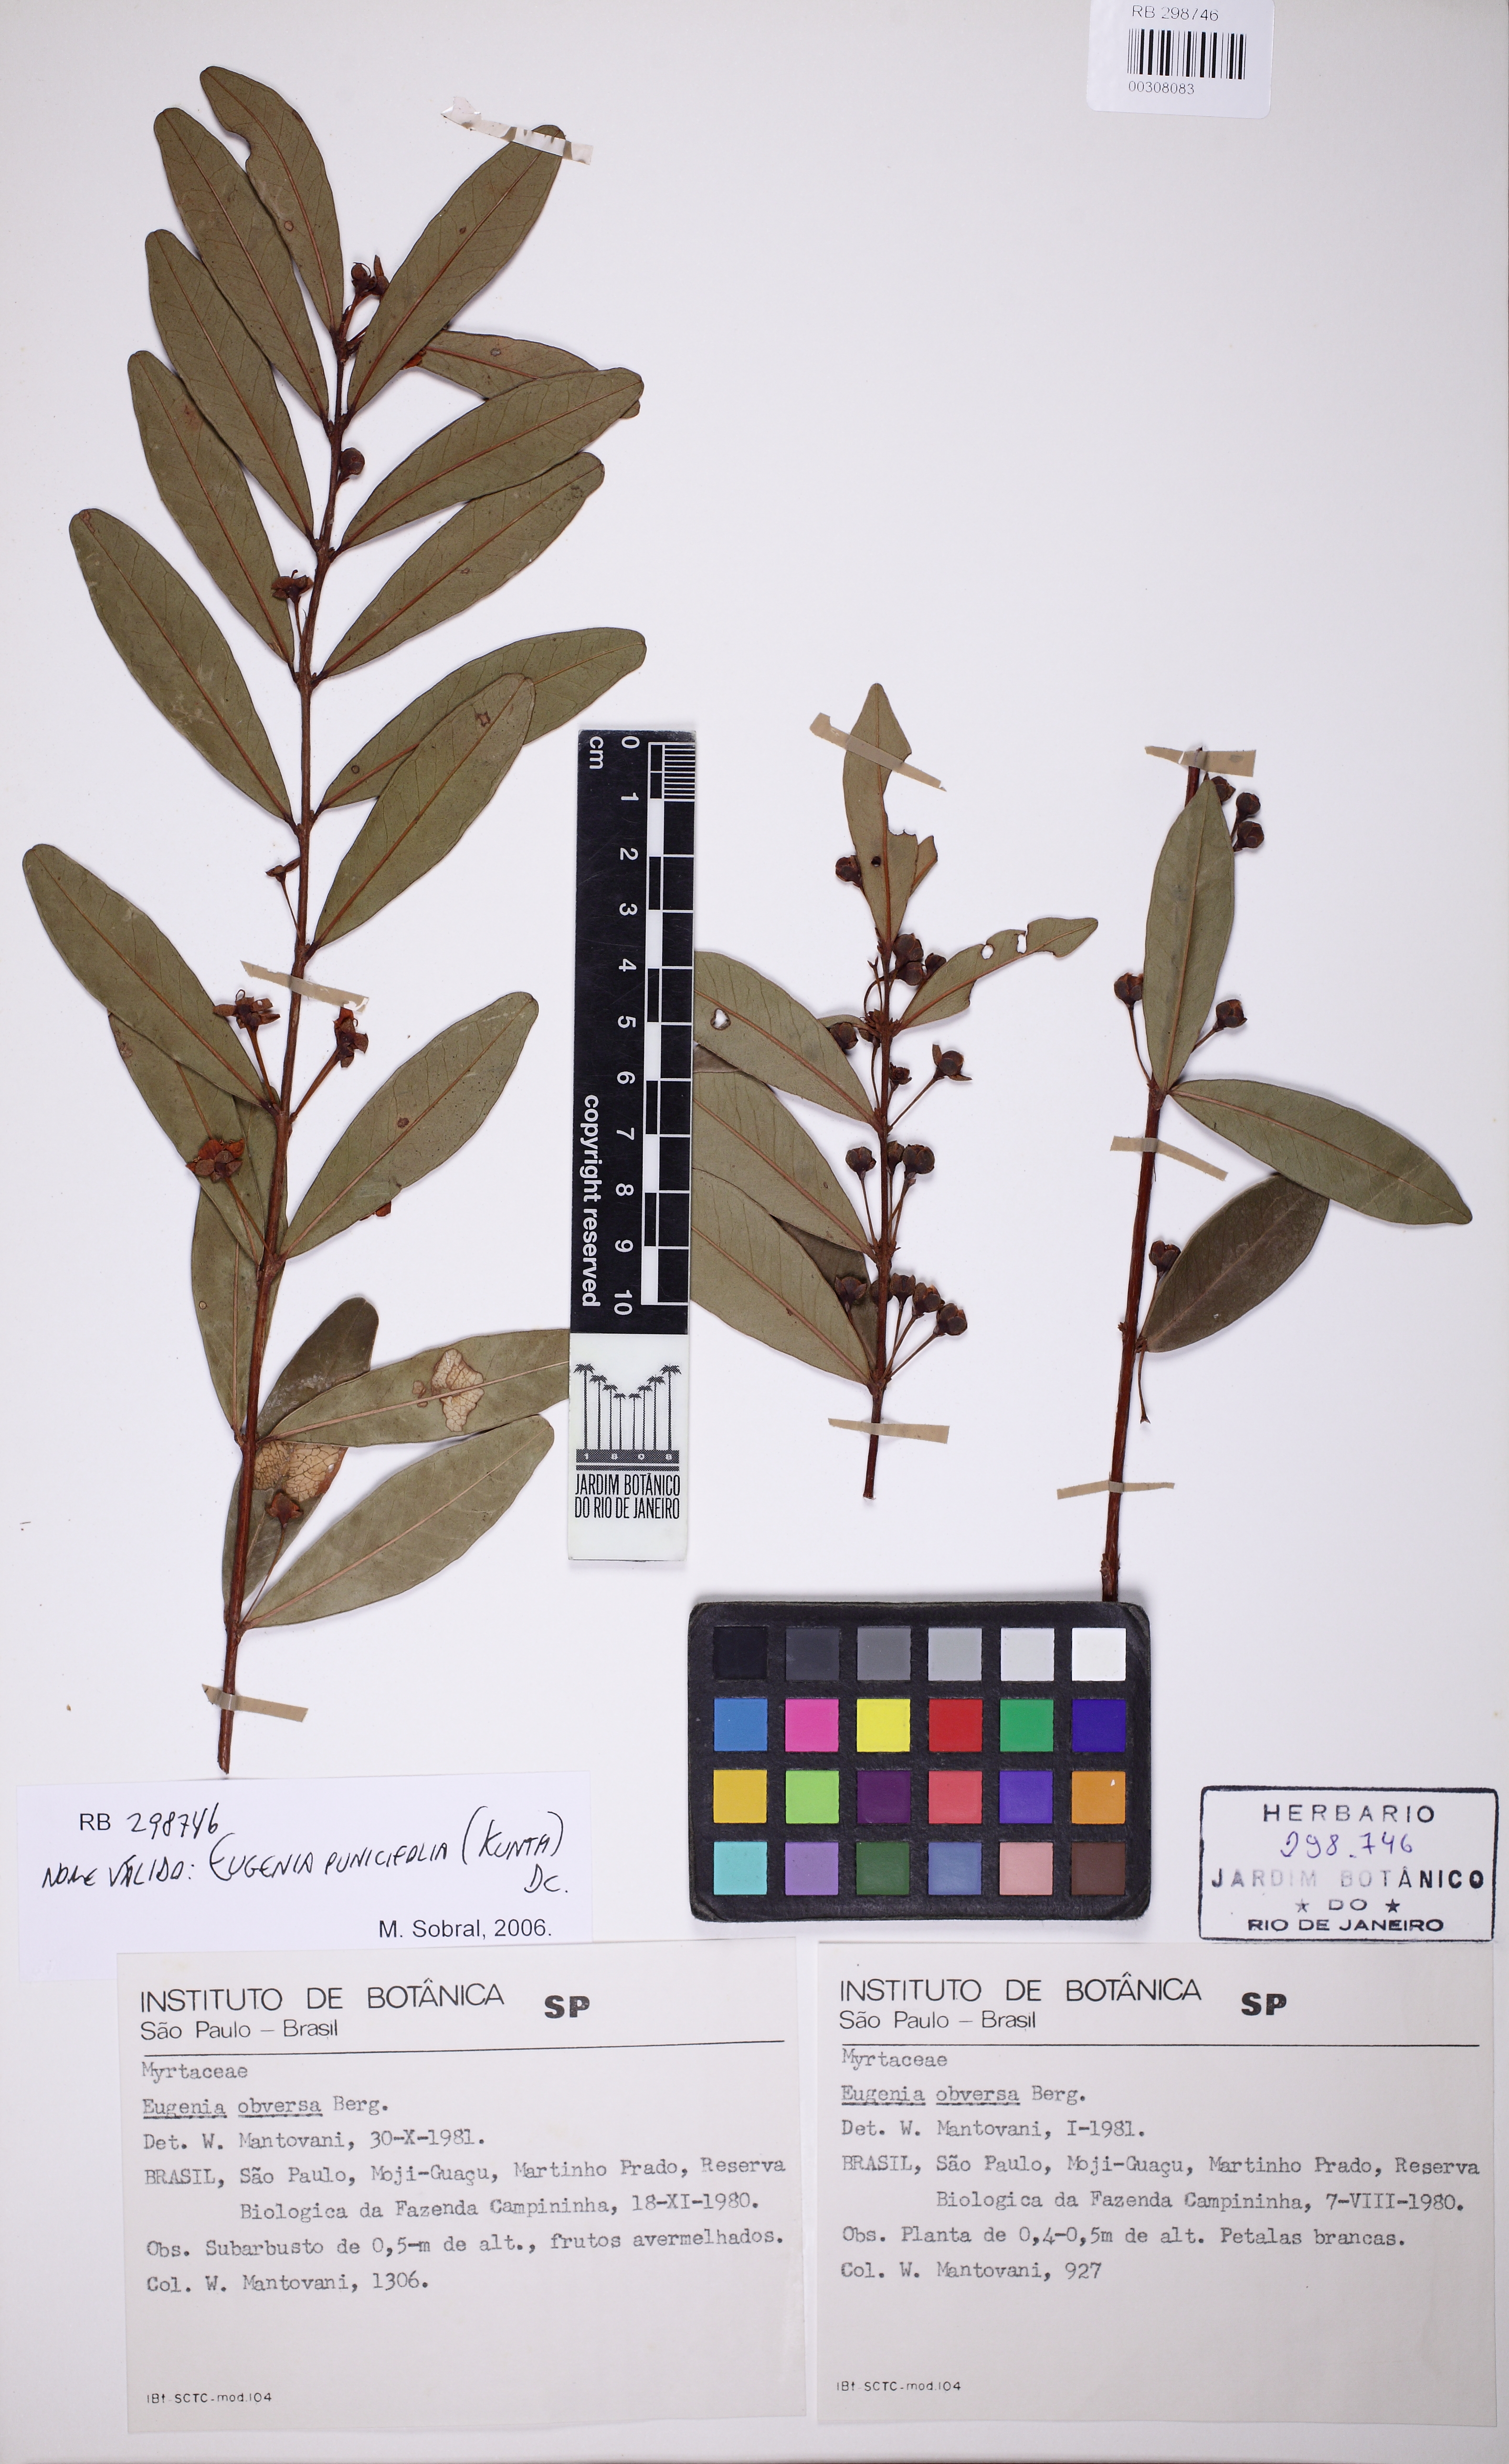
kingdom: Plantae
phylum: Tracheophyta
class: Magnoliopsida
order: Myrtales
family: Myrtaceae
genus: Eugenia
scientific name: Eugenia punicifolia
